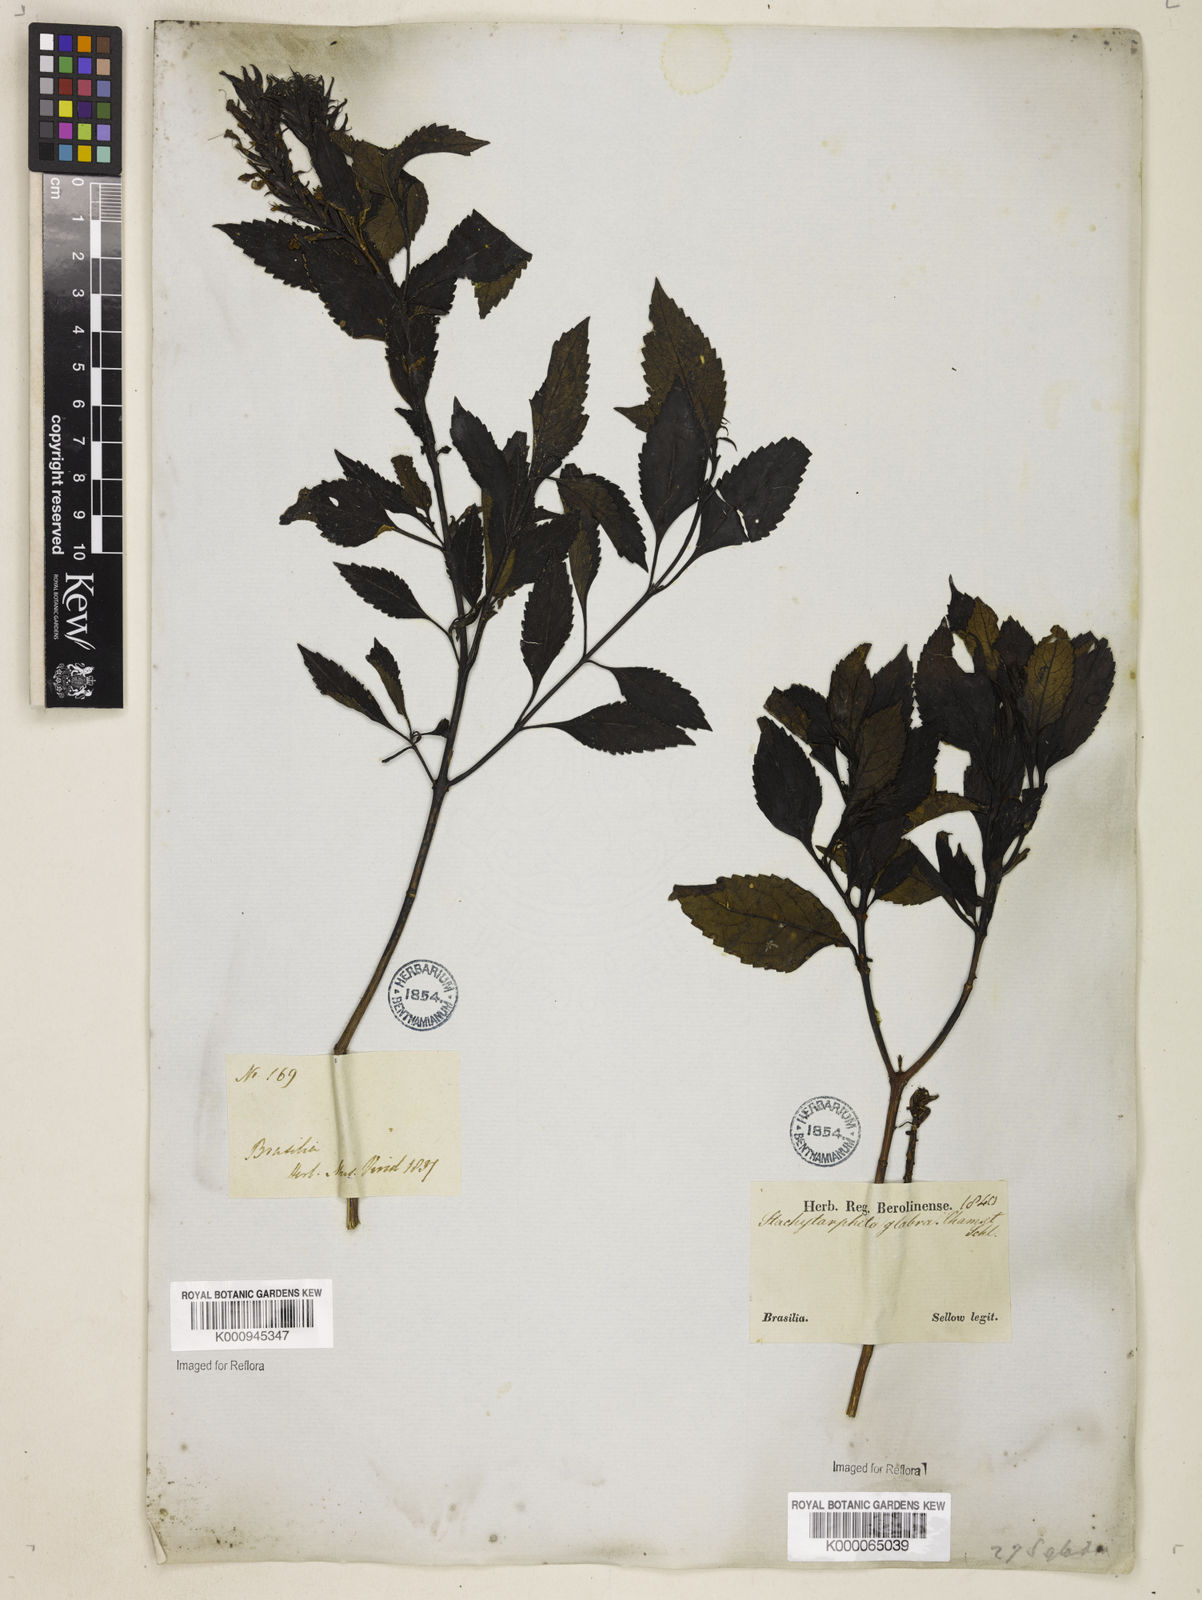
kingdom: Plantae
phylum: Tracheophyta
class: Magnoliopsida
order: Lamiales
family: Verbenaceae
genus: Stachytarpheta
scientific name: Stachytarpheta glabra
